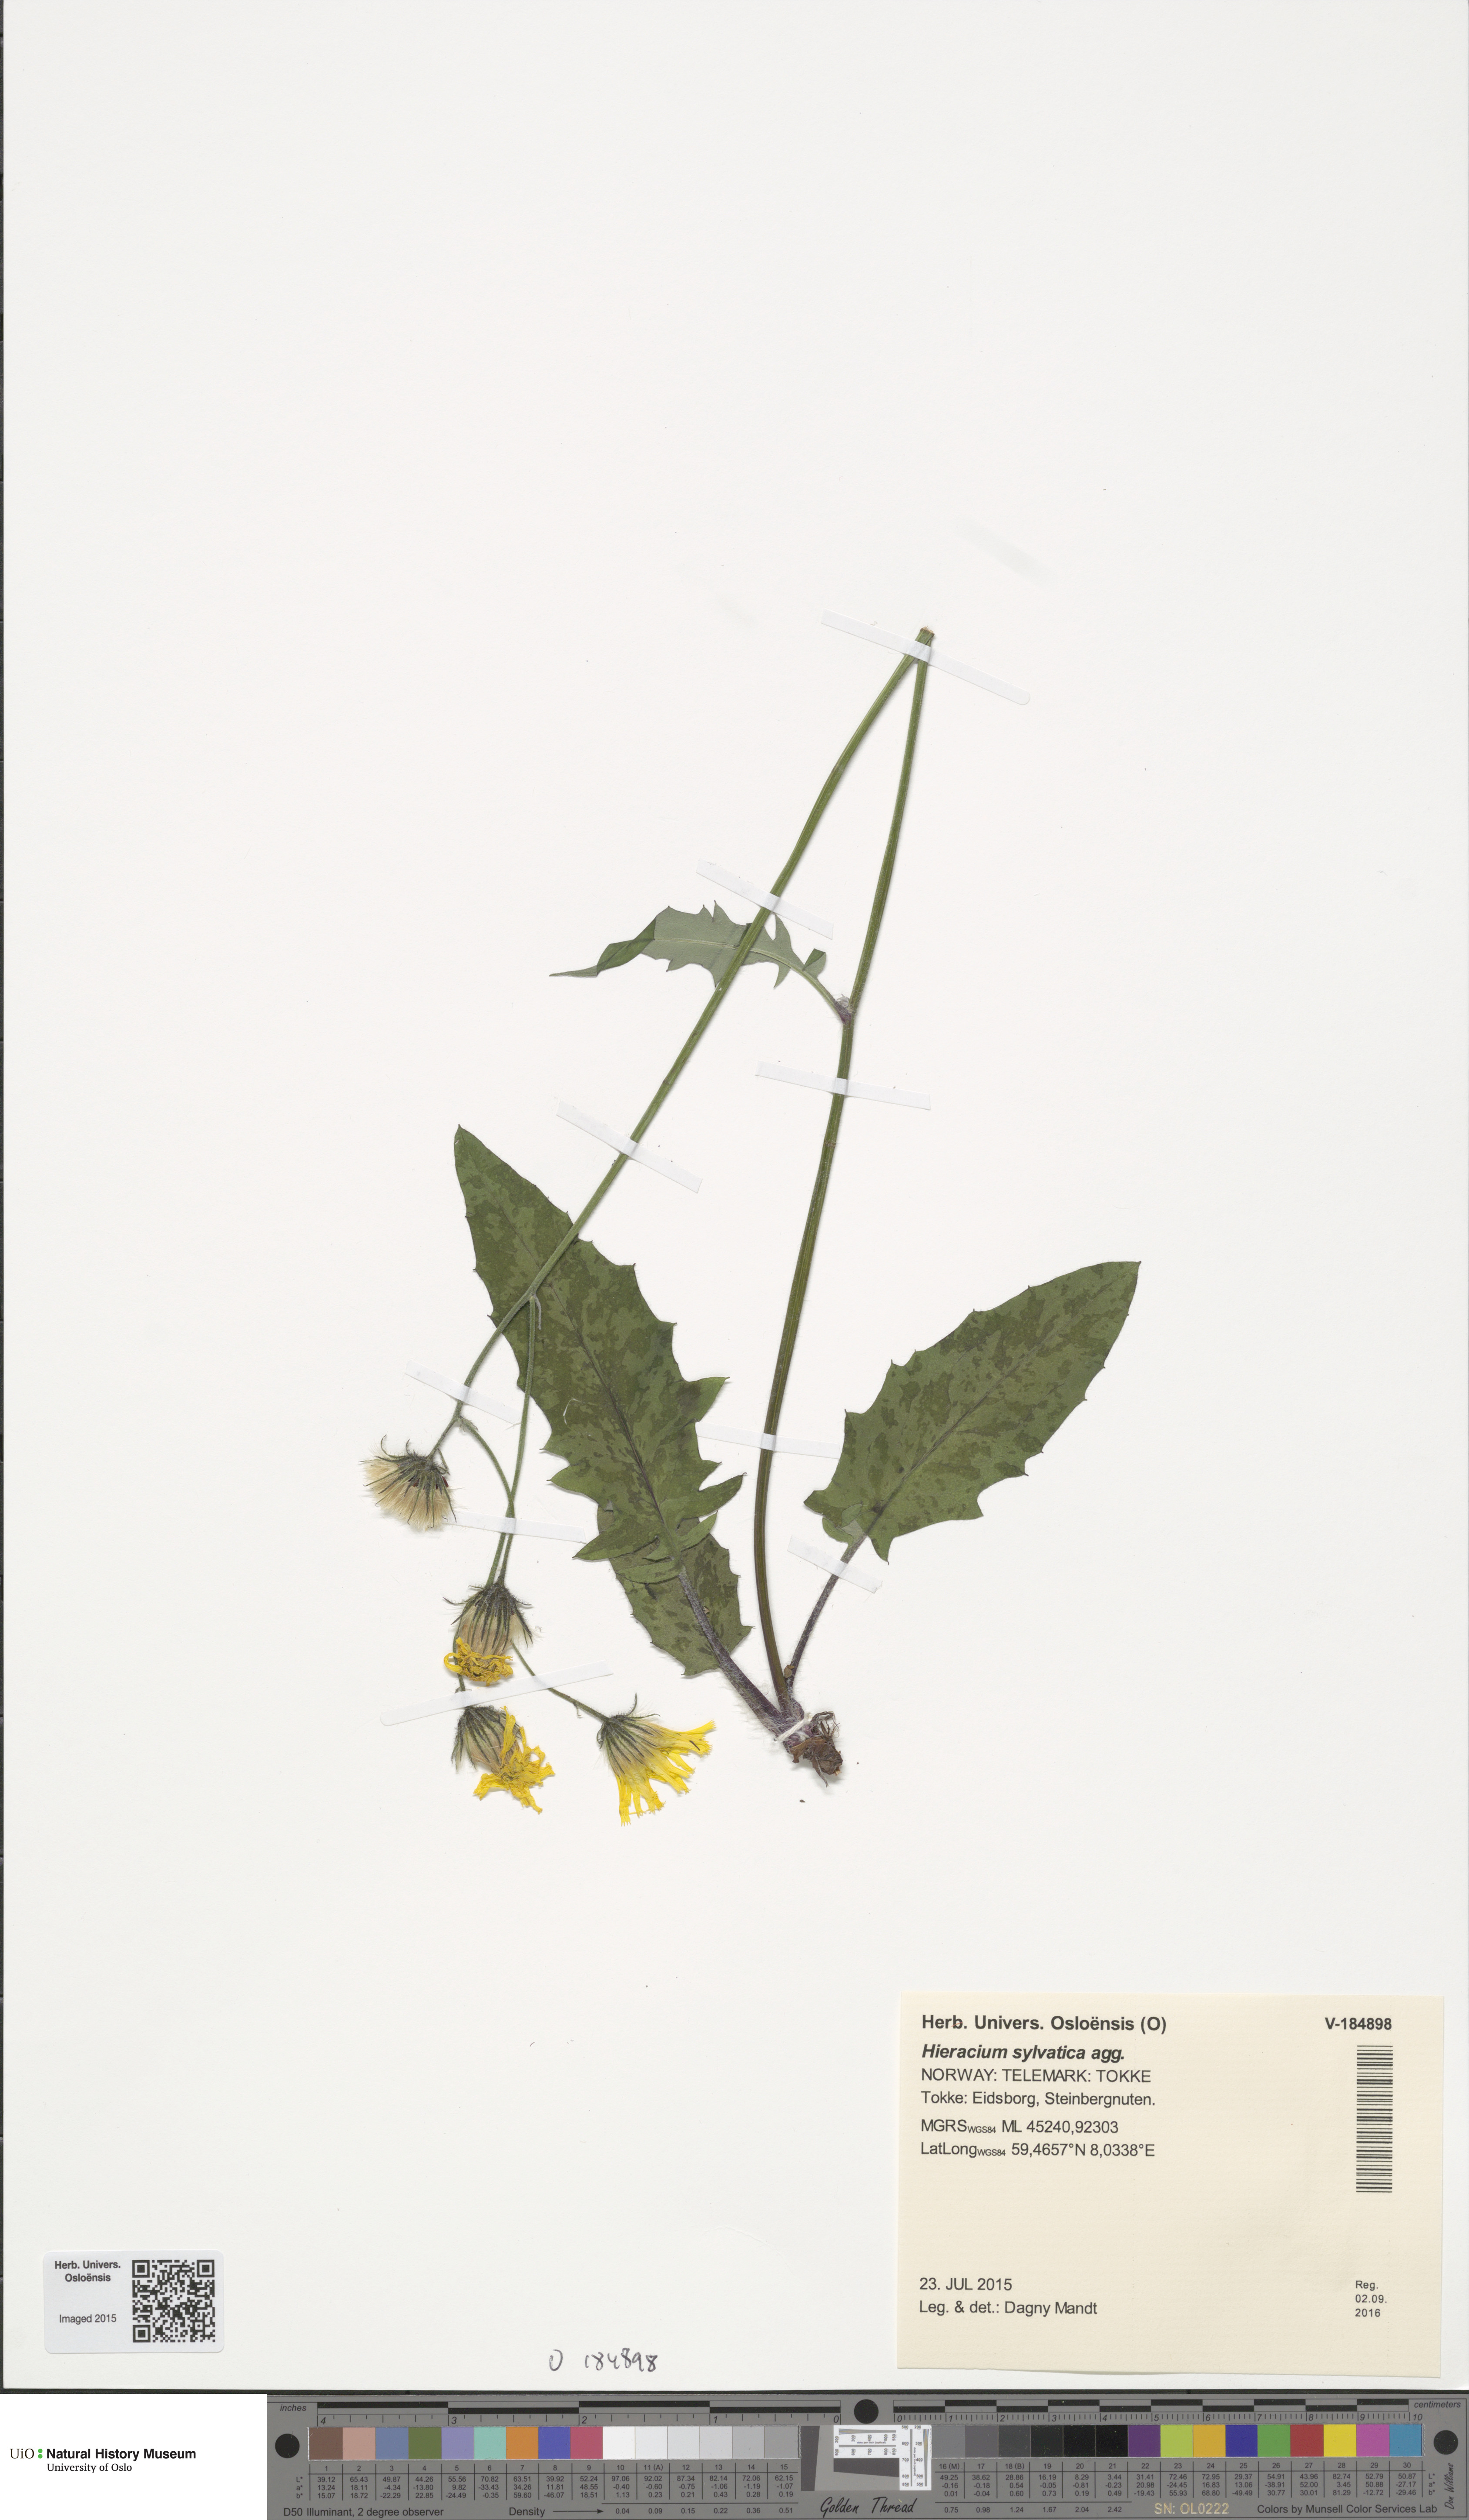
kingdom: Plantae
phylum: Tracheophyta
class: Magnoliopsida
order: Asterales
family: Asteraceae
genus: Hieracium
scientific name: Hieracium
